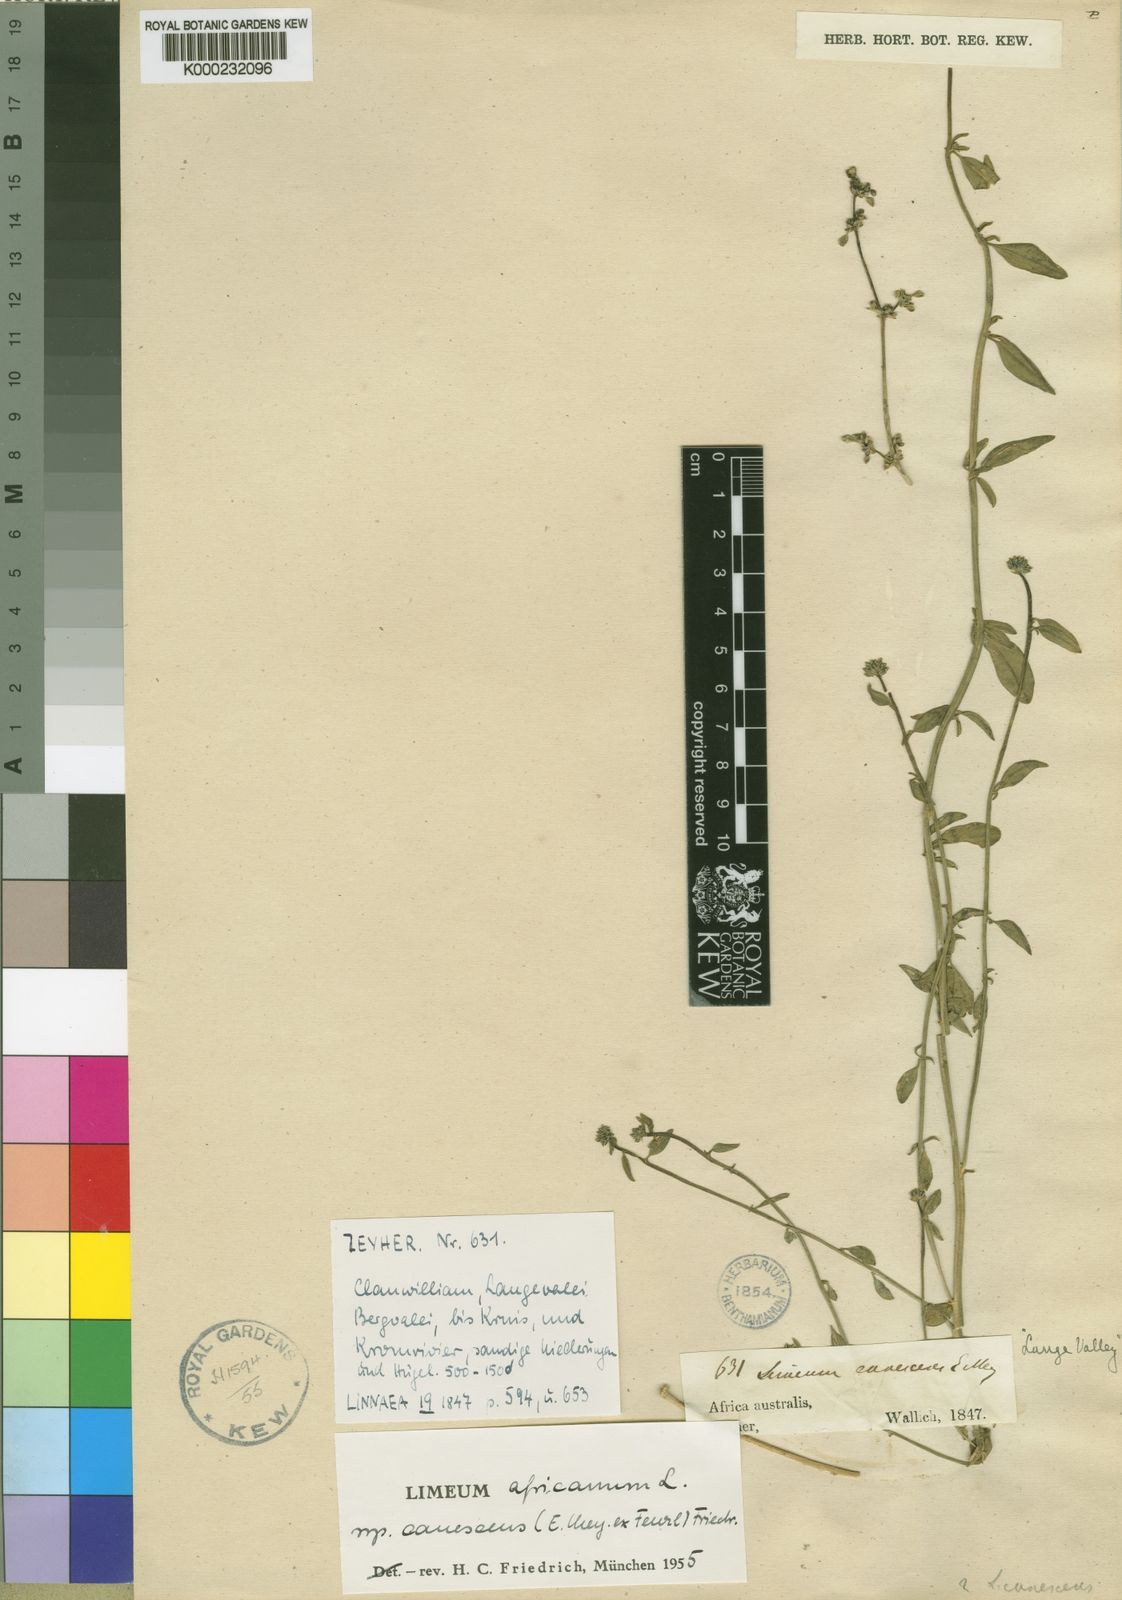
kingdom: Plantae
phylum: Tracheophyta
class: Magnoliopsida
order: Caryophyllales
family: Limeaceae
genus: Limeum
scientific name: Limeum africanum
